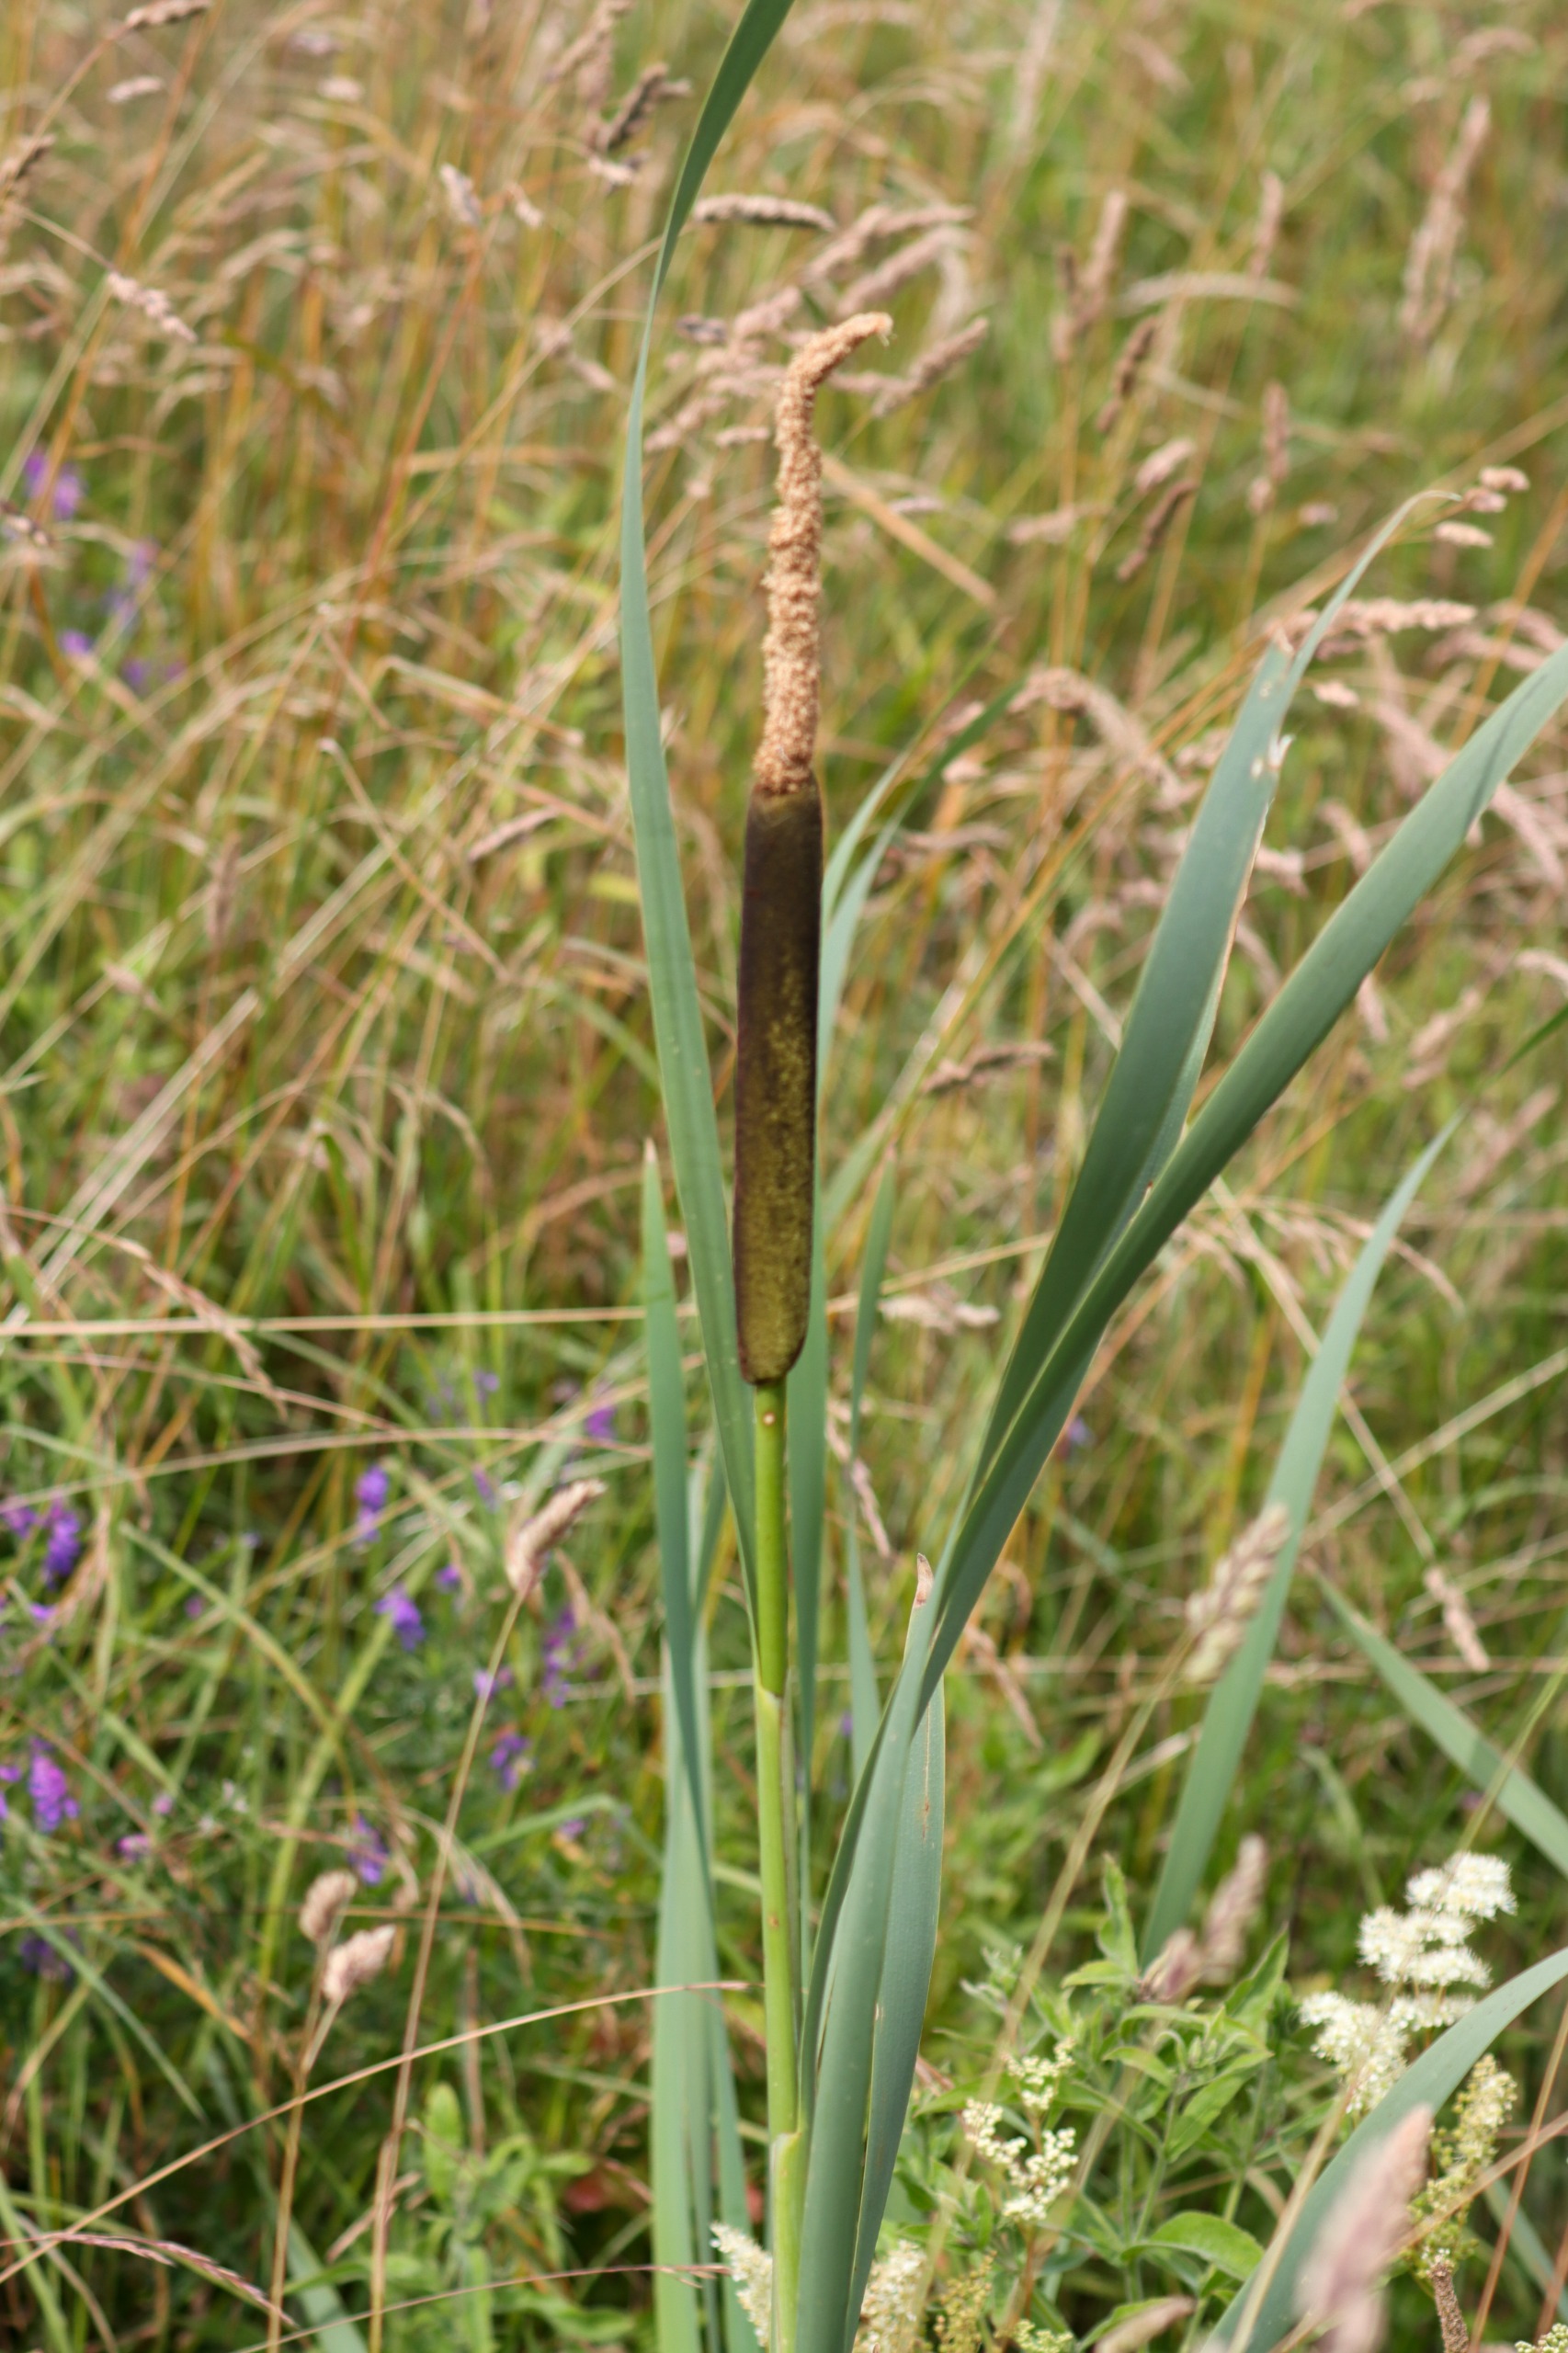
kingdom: Plantae
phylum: Tracheophyta
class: Liliopsida
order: Poales
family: Typhaceae
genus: Typha
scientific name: Typha latifolia
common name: Bredbladet dunhammer
